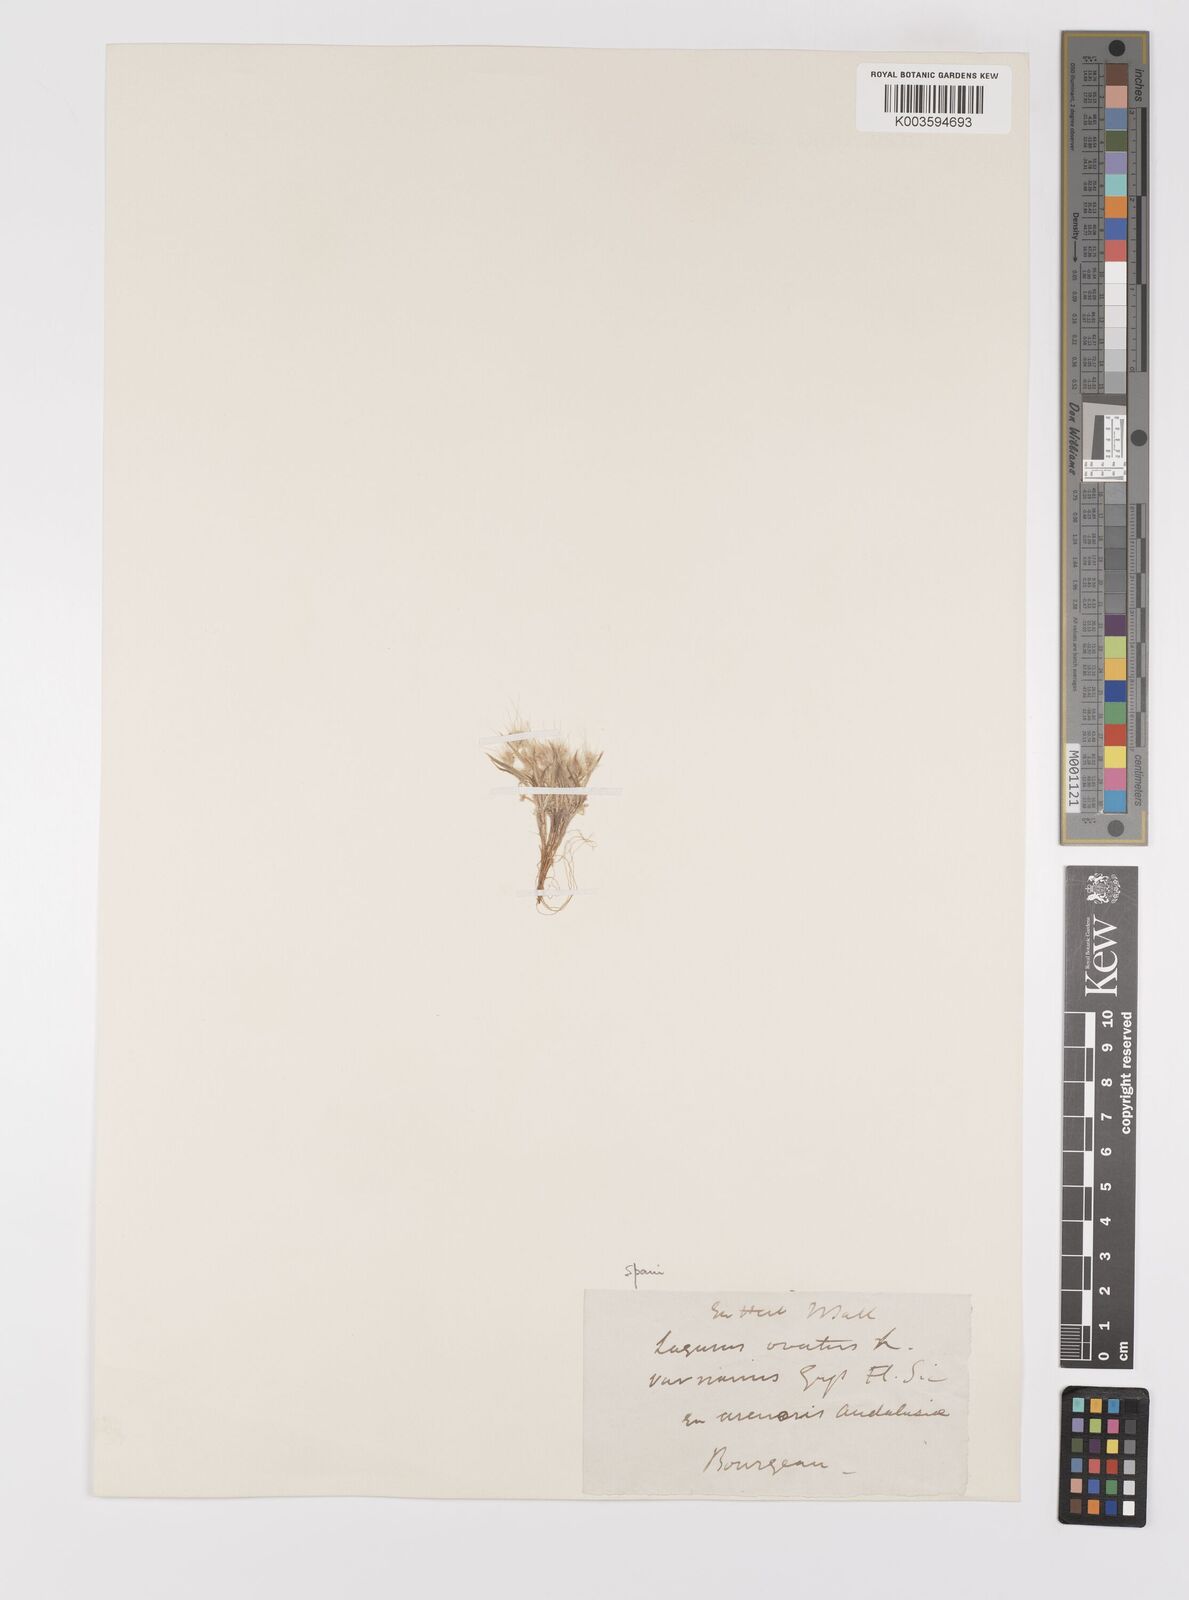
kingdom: Plantae
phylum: Tracheophyta
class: Liliopsida
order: Poales
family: Poaceae
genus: Lagurus
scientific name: Lagurus ovatus
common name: Hare's-tail
